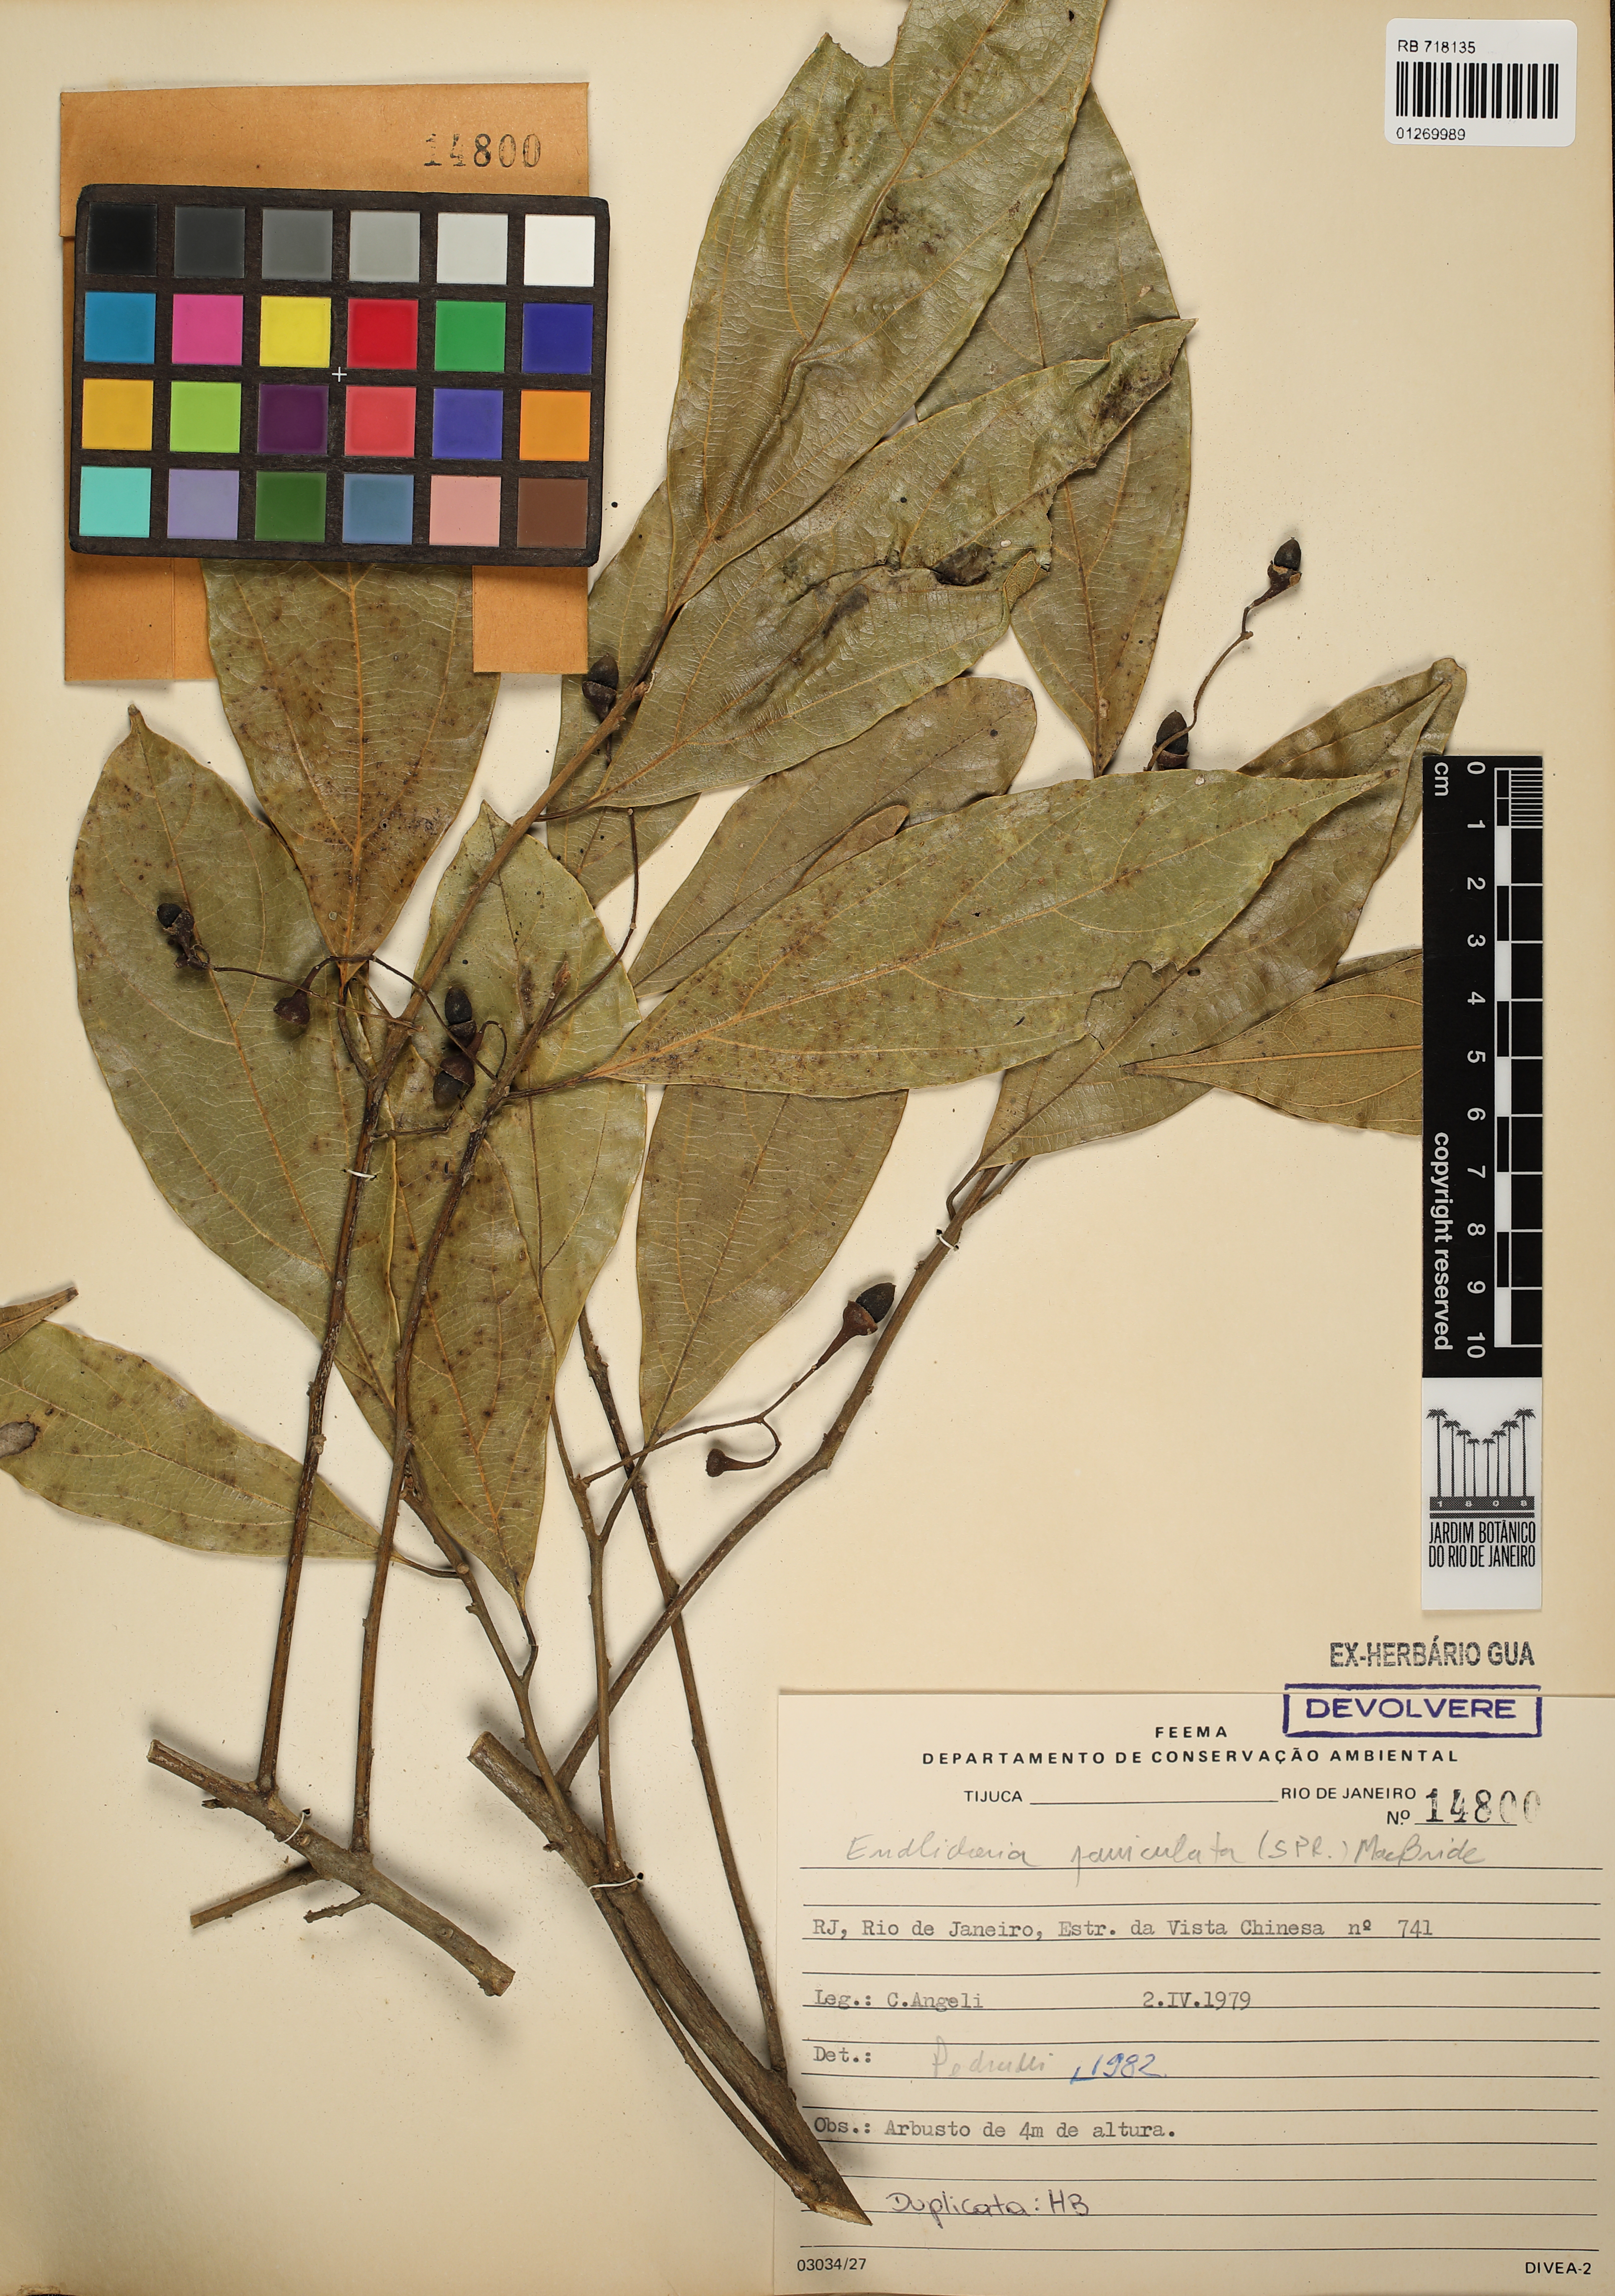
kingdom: Plantae
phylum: Tracheophyta
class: Magnoliopsida
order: Laurales
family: Lauraceae
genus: Endlicheria
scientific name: Endlicheria paniculata
